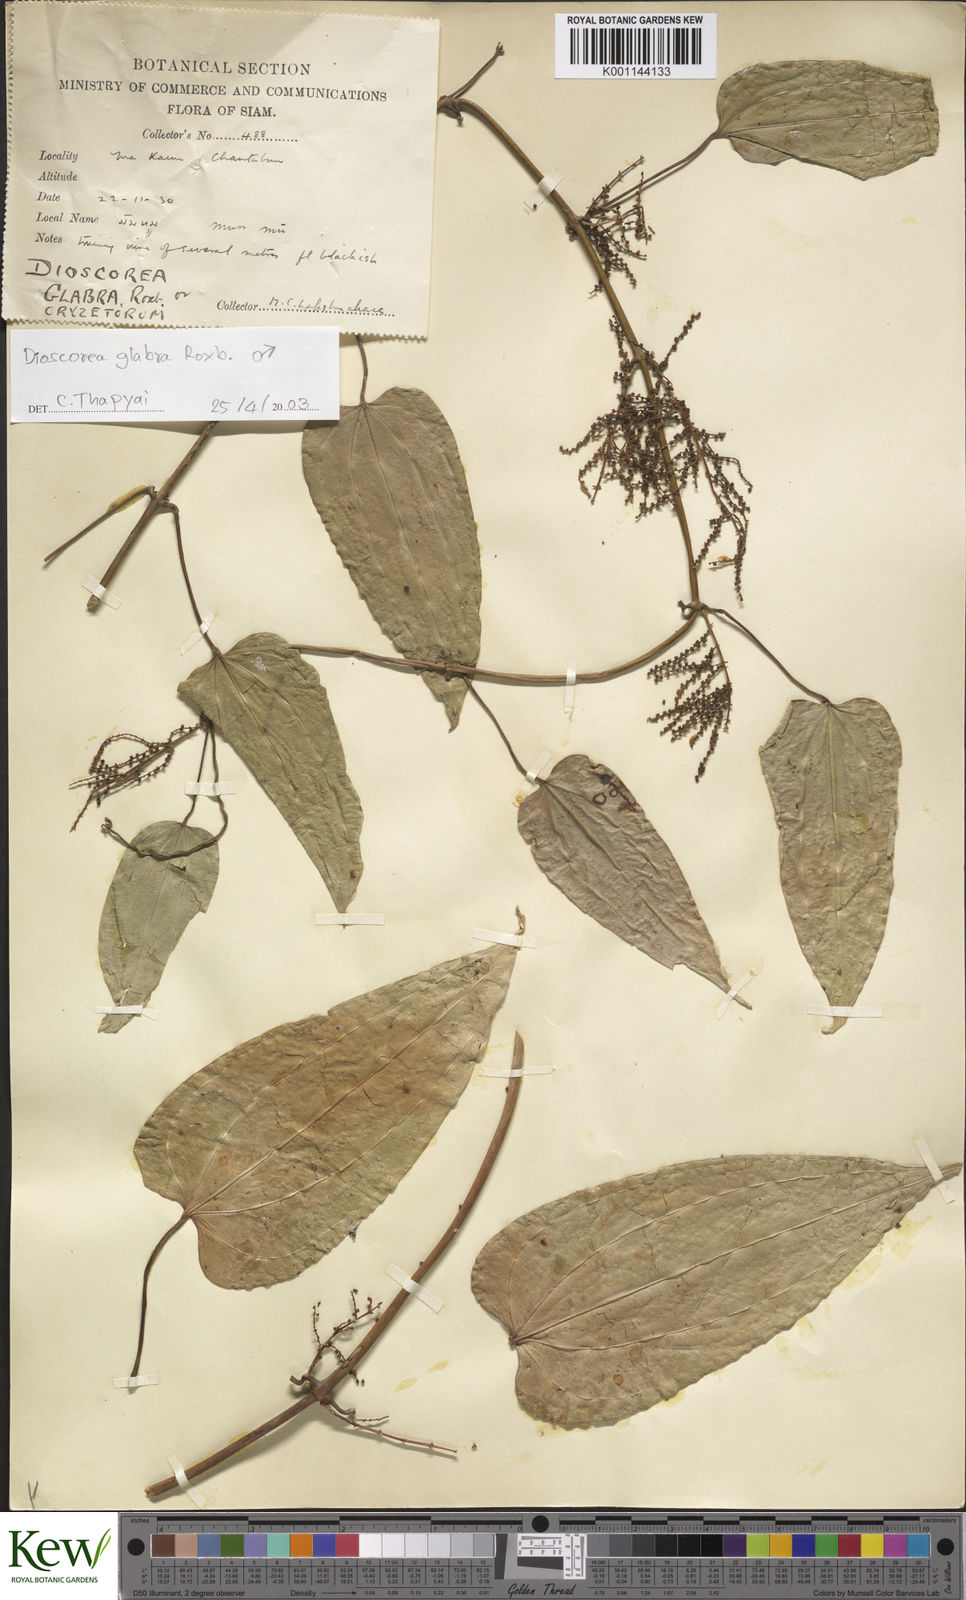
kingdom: Plantae
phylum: Tracheophyta
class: Liliopsida
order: Dioscoreales
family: Dioscoreaceae
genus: Dioscorea
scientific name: Dioscorea glabra
